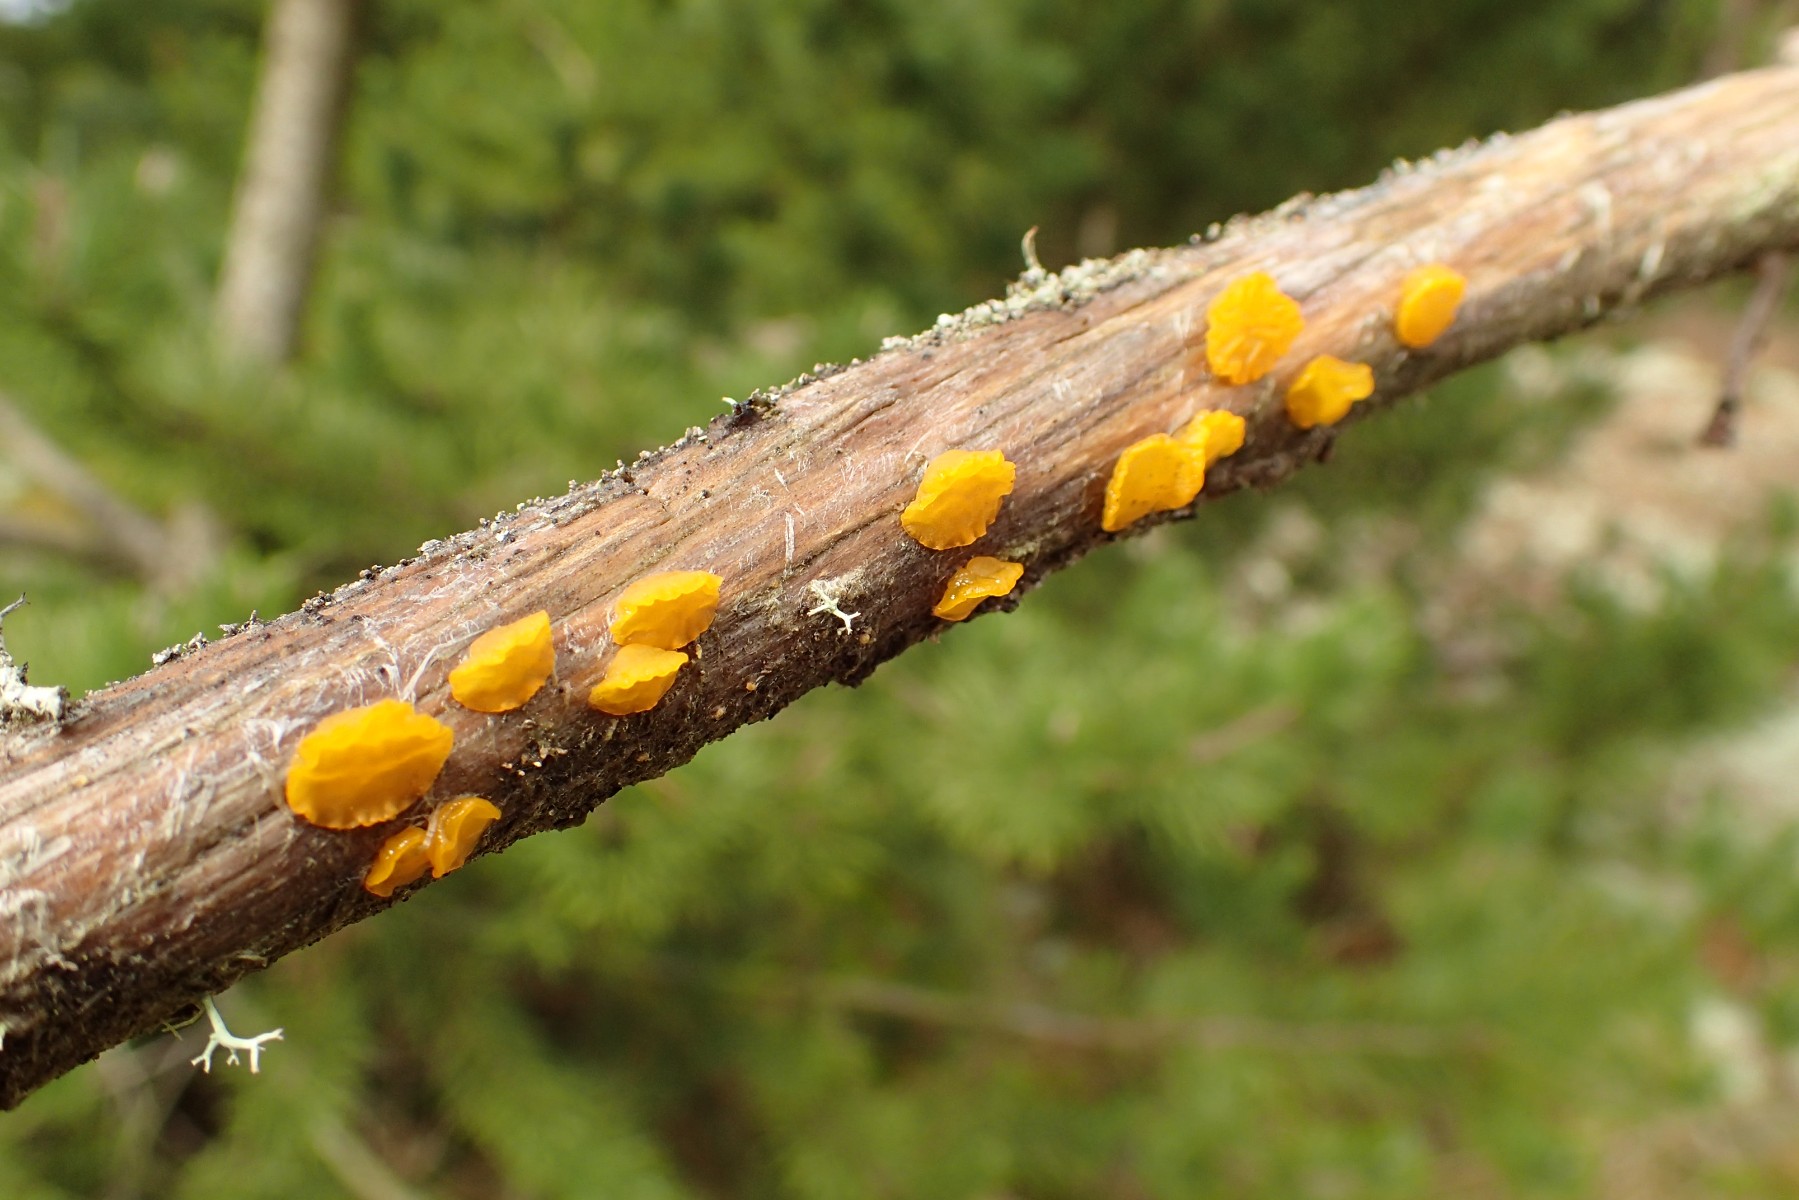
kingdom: Fungi
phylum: Basidiomycota
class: Dacrymycetes
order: Dacrymycetales
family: Dacrymycetaceae
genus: Guepiniopsis
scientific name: Guepiniopsis alpina
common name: knaldgul tåresvamp
